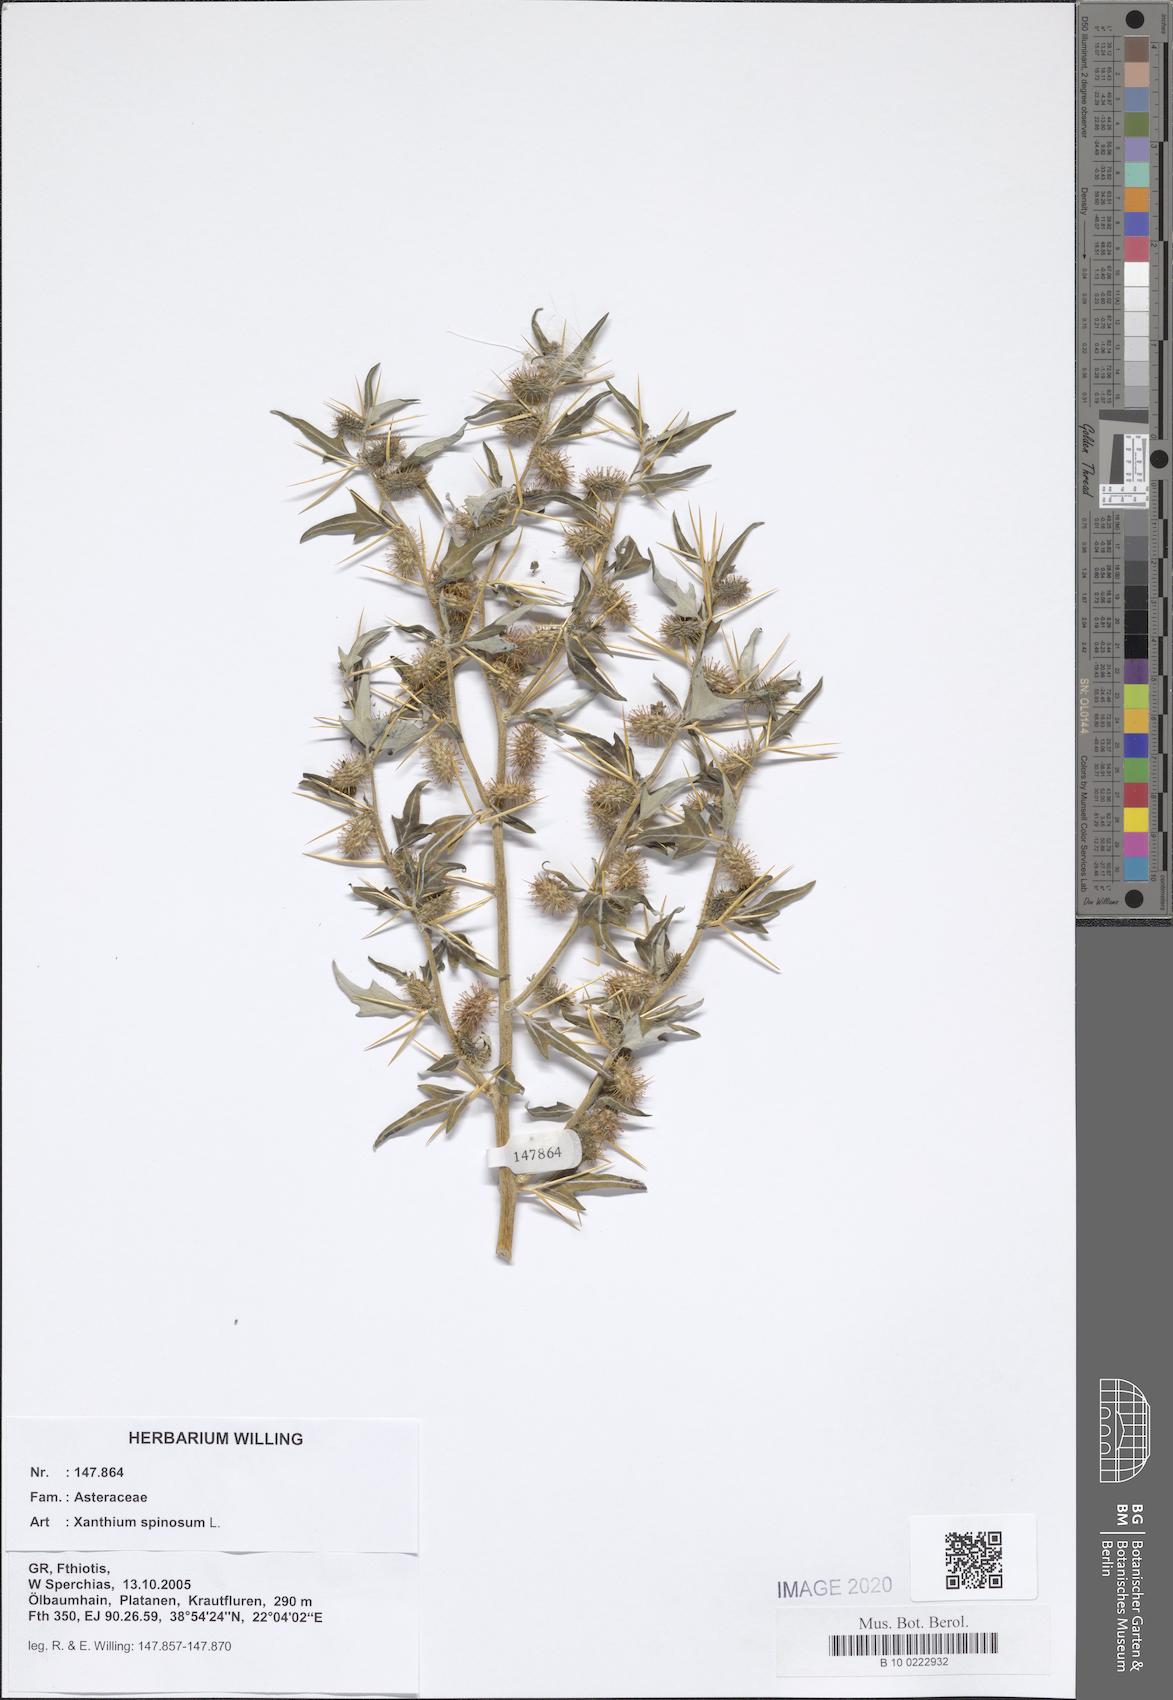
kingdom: Plantae
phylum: Tracheophyta
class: Magnoliopsida
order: Asterales
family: Asteraceae
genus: Xanthium
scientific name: Xanthium spinosum
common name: Spiny cocklebur
